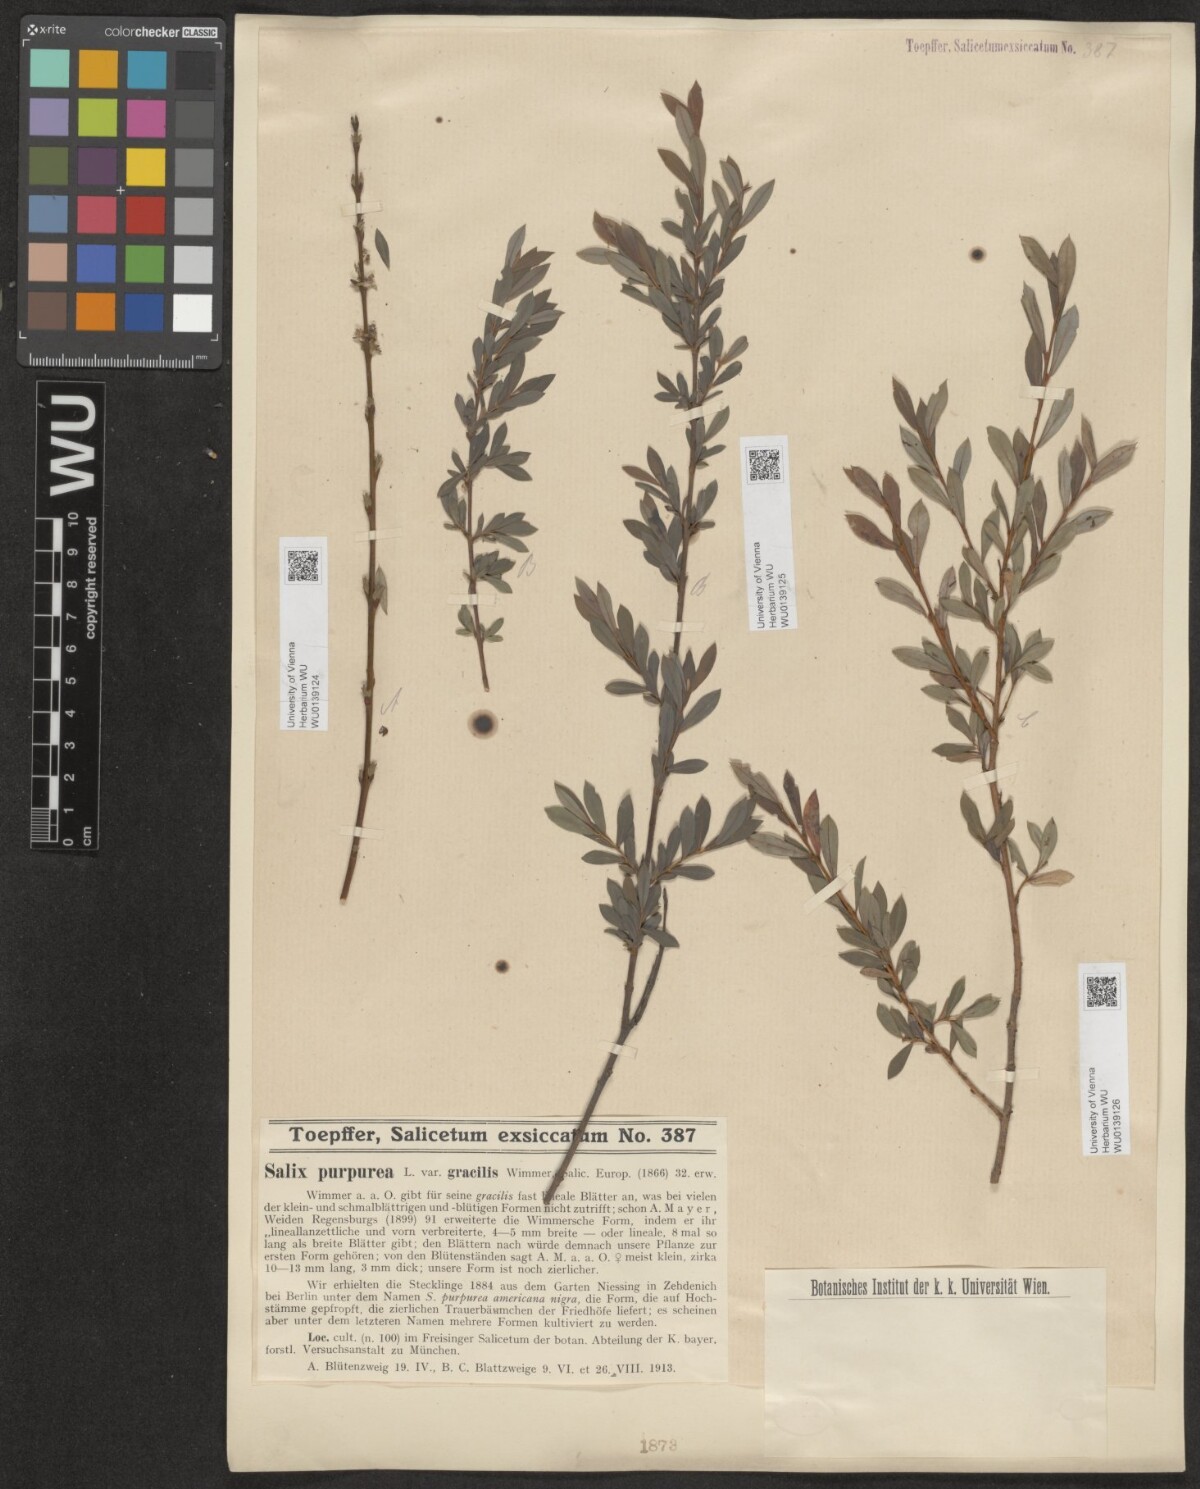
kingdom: Plantae
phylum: Tracheophyta
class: Magnoliopsida
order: Malpighiales
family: Salicaceae
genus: Salix
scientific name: Salix purpurea
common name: Purple willow
